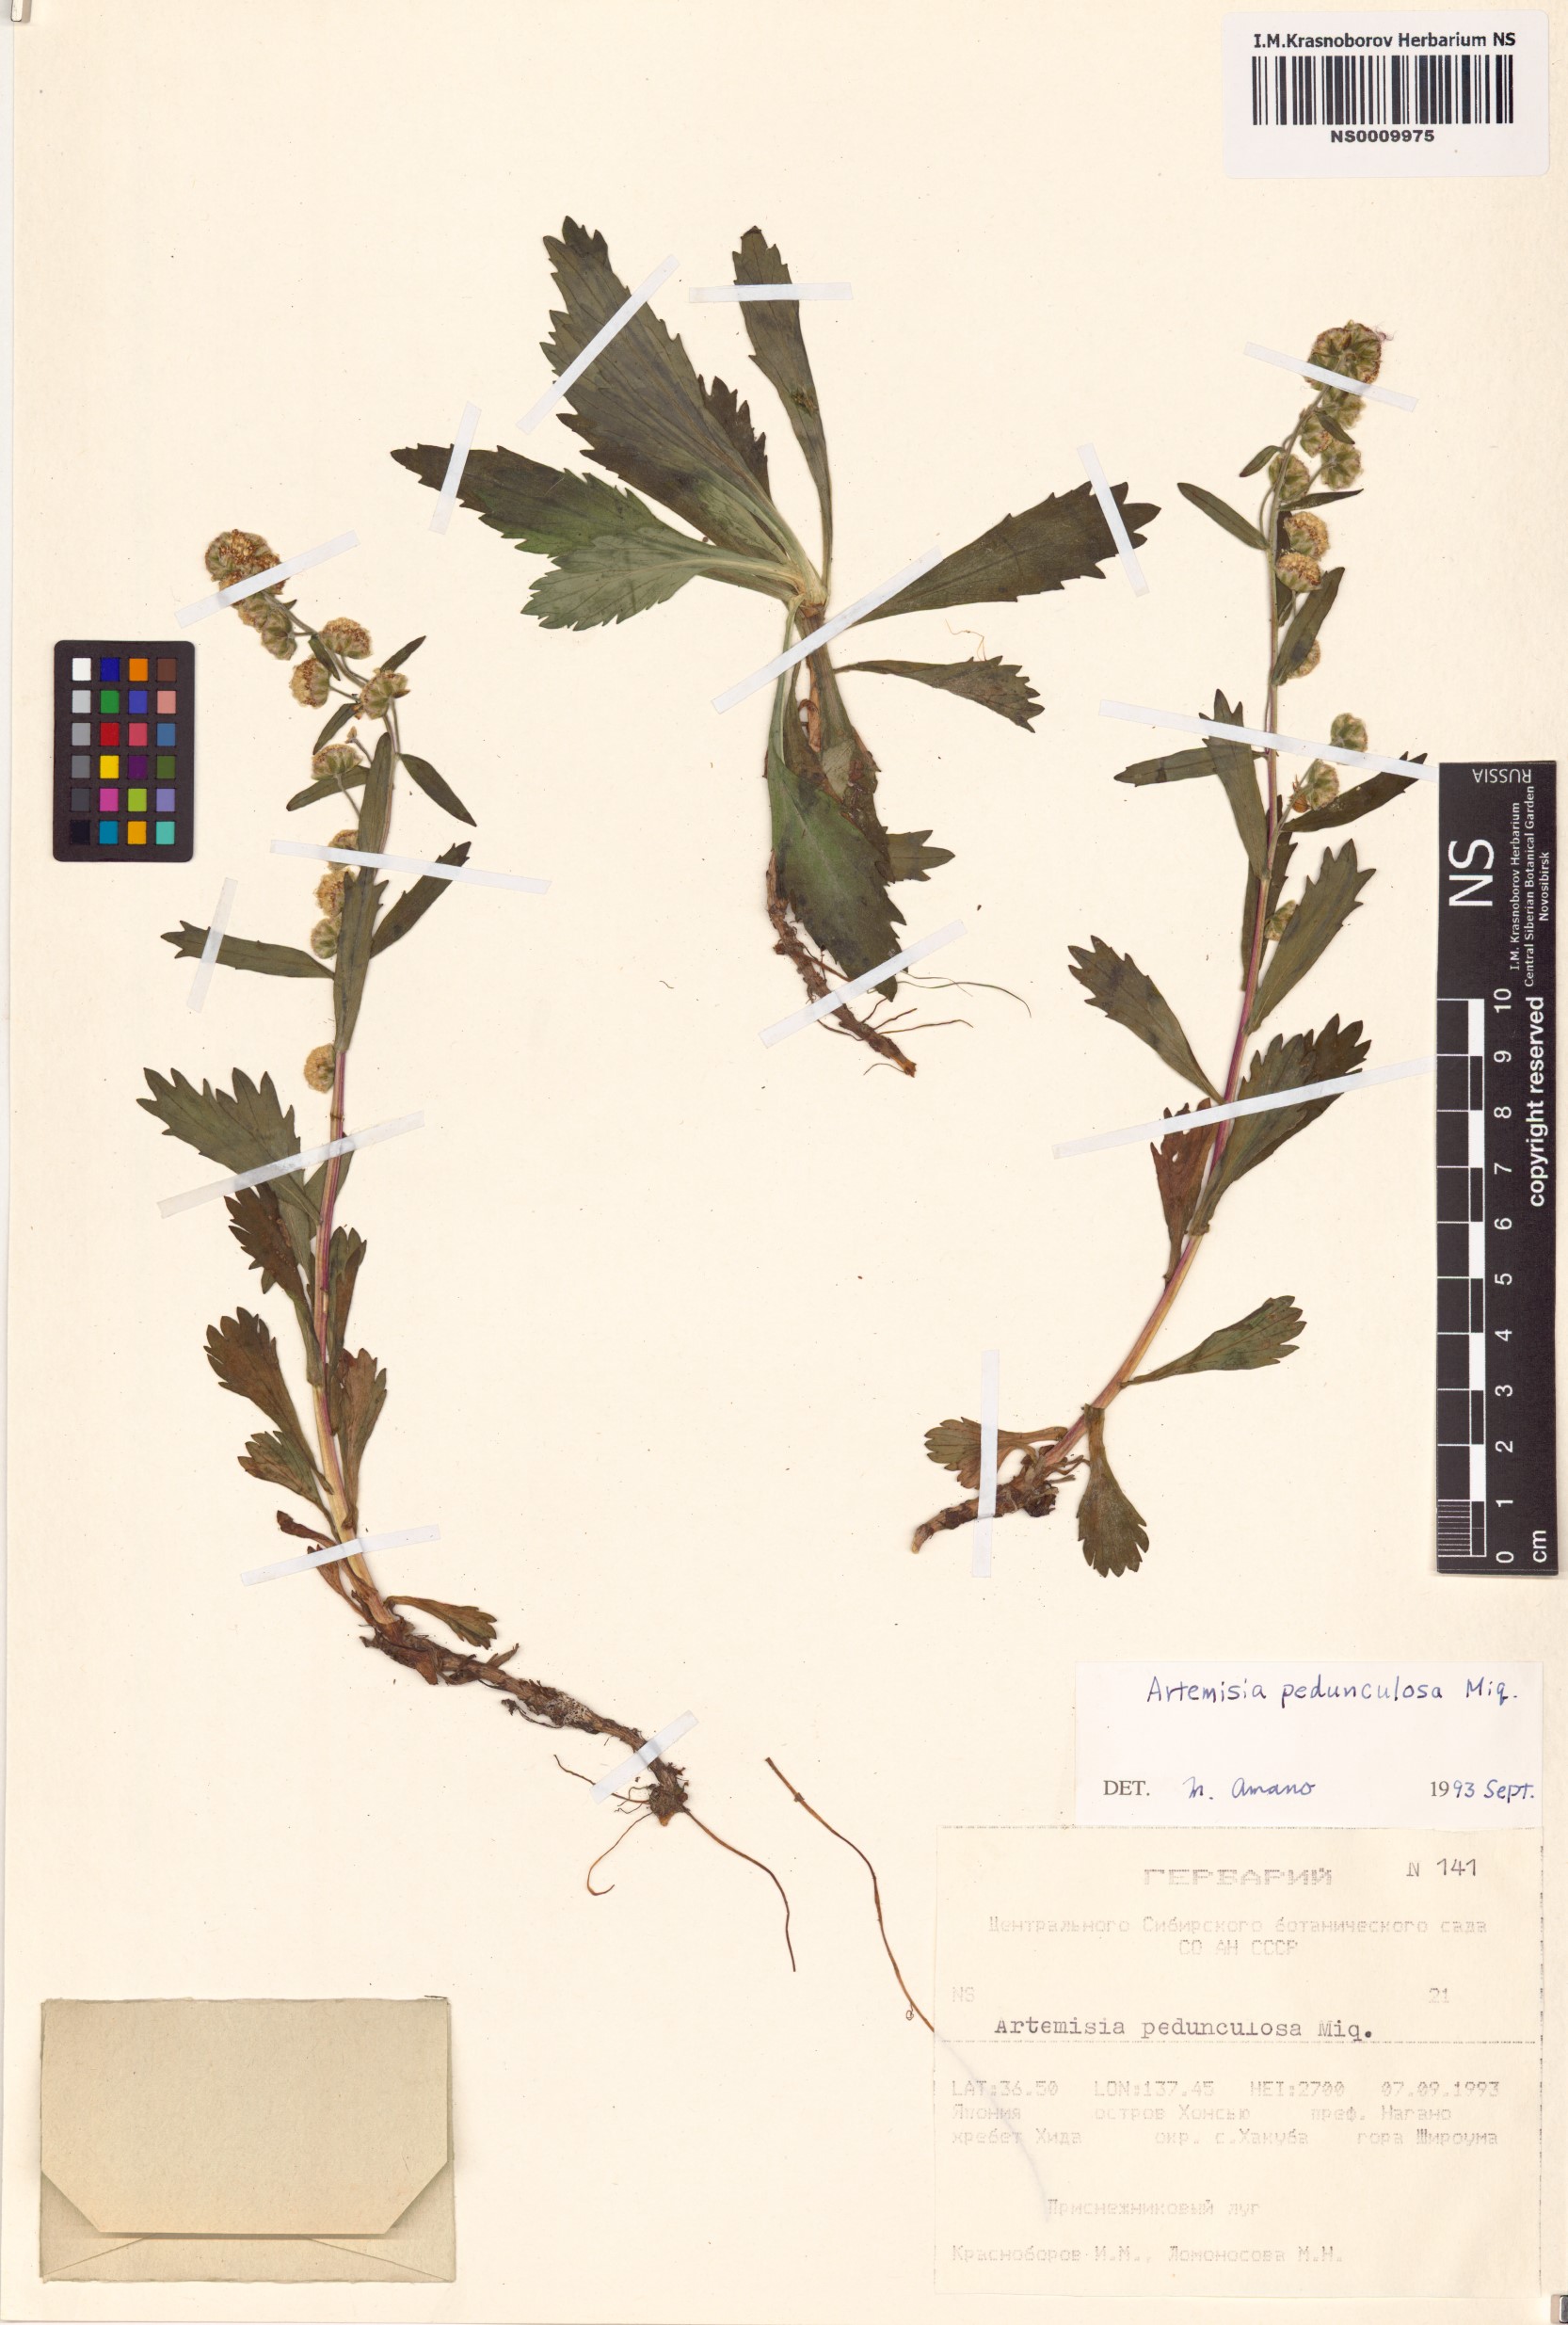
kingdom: Plantae
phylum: Tracheophyta
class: Magnoliopsida
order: Asterales
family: Asteraceae
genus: Artemisia
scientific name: Artemisia pedunculosa
